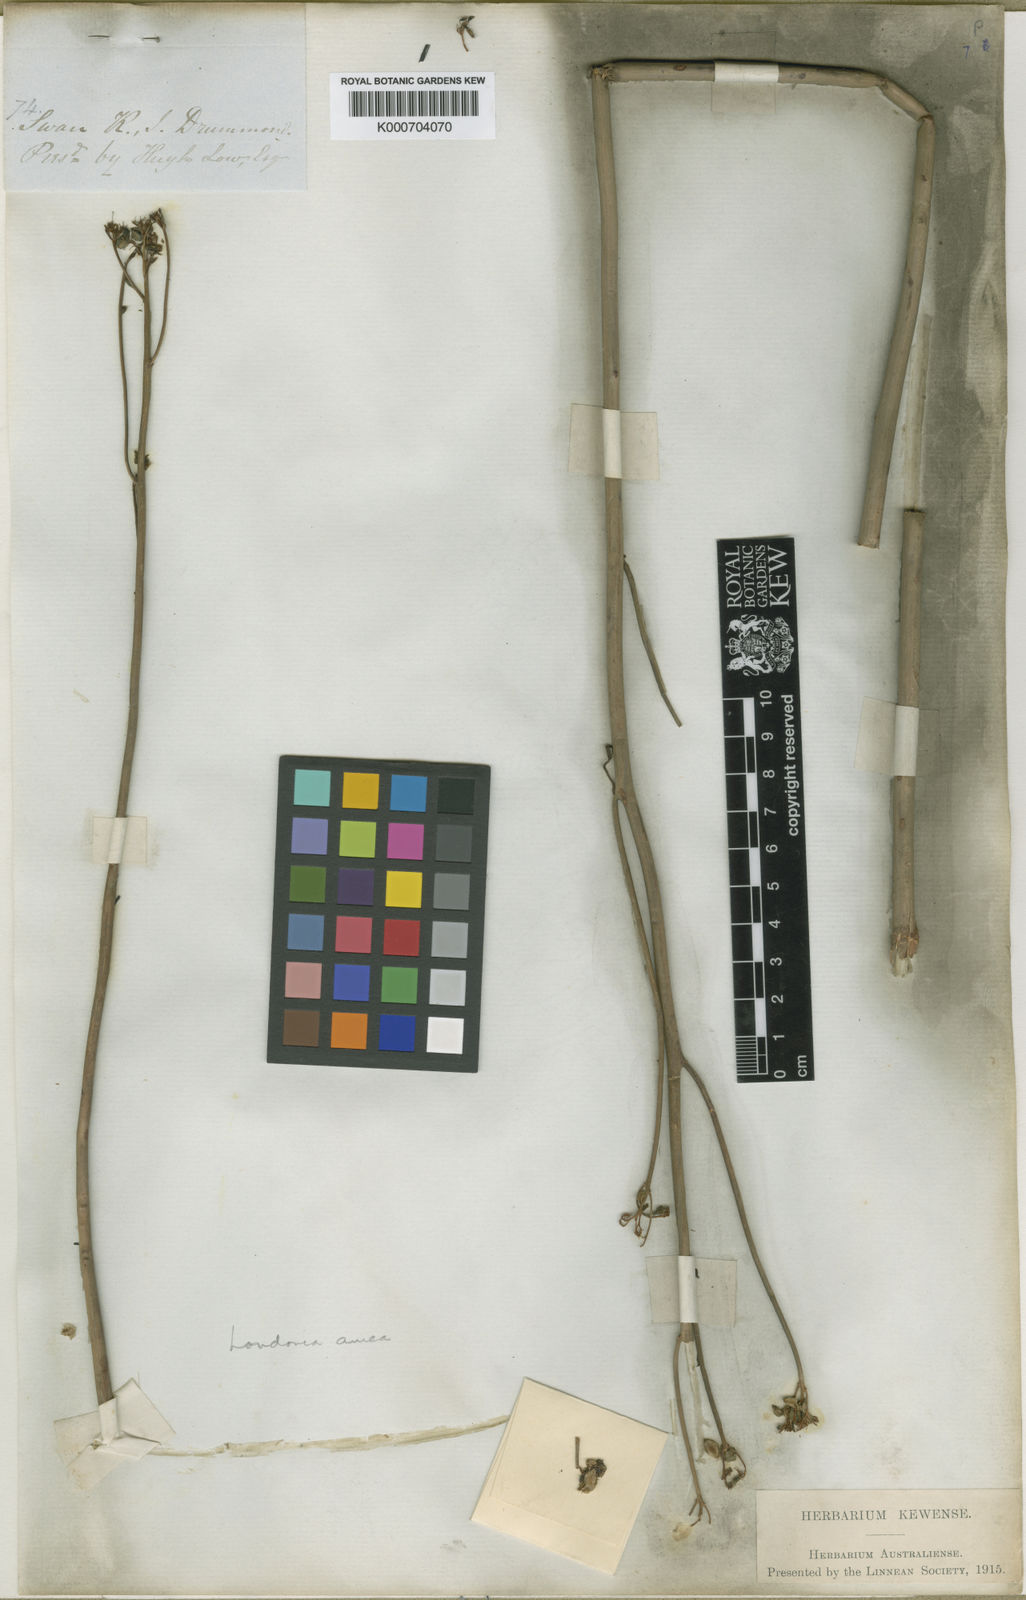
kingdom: Plantae
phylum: Tracheophyta
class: Magnoliopsida
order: Saxifragales
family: Haloragaceae
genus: Glischrocaryon
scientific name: Glischrocaryon aureum
